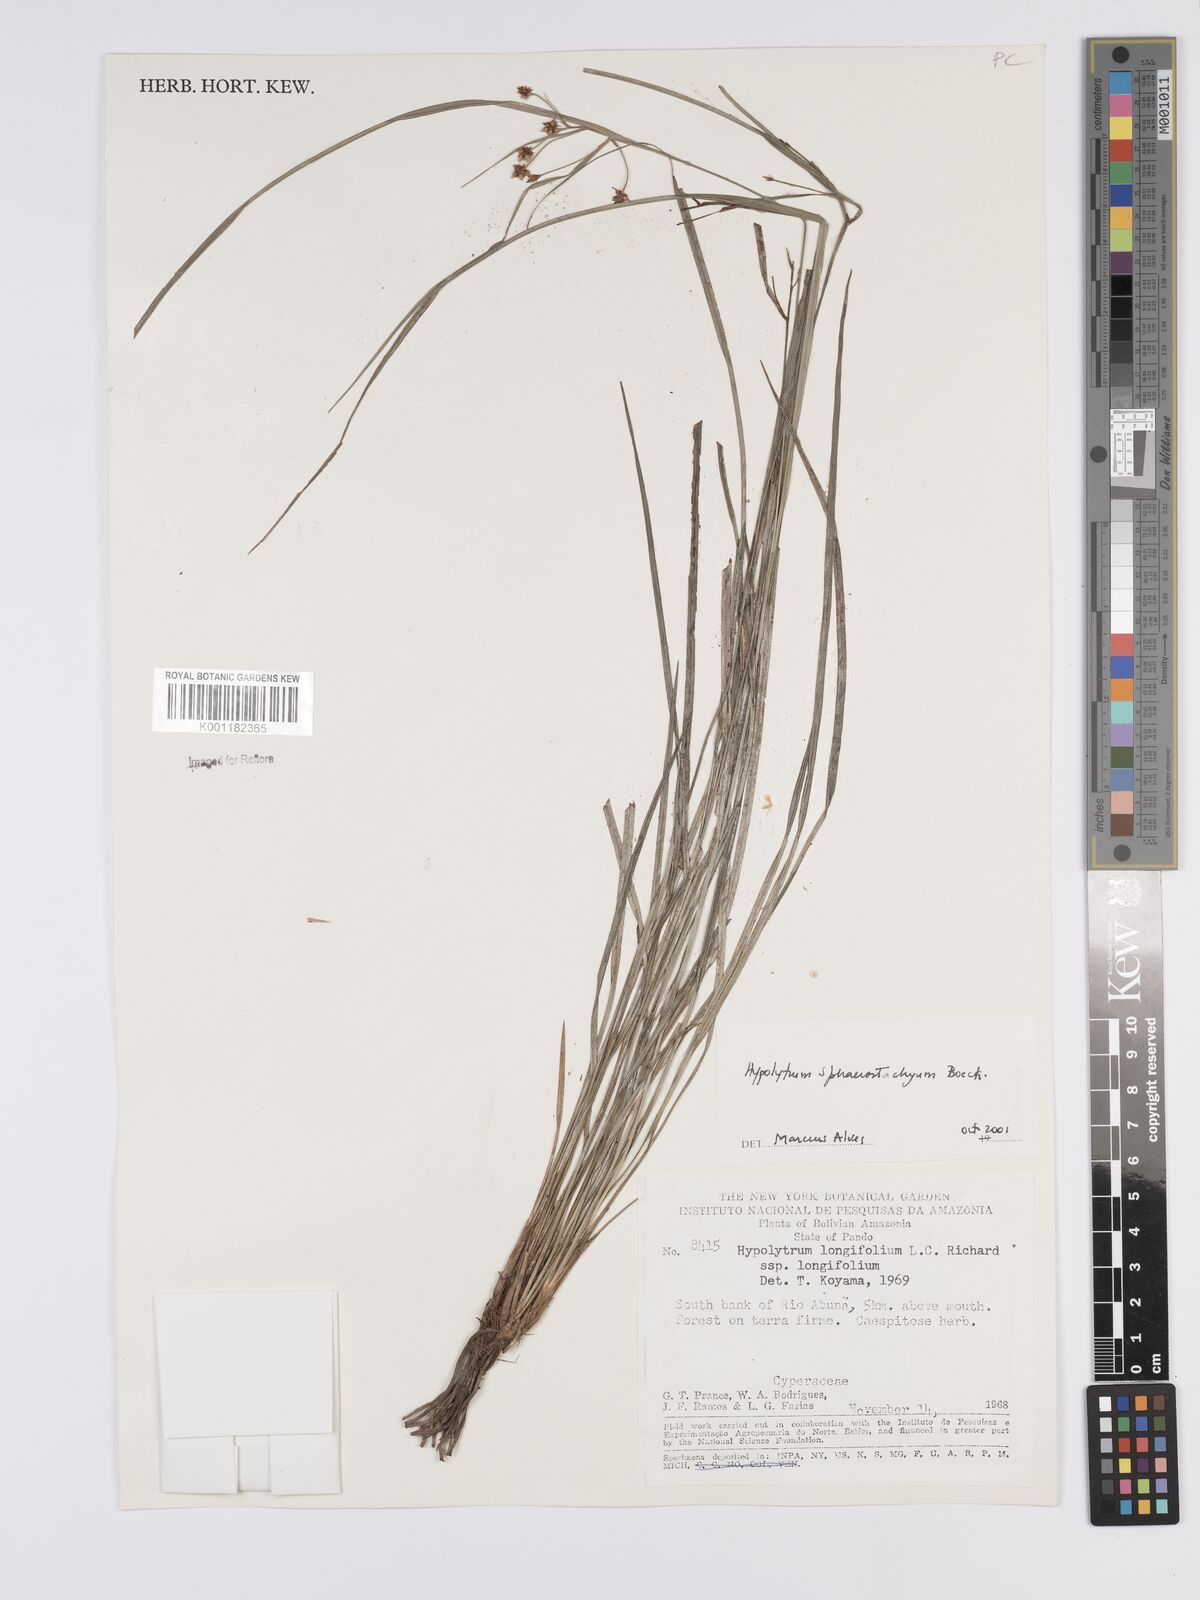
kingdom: Plantae
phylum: Tracheophyta
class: Liliopsida
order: Poales
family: Cyperaceae
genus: Hypolytrum
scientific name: Hypolytrum sphaerostachyum
